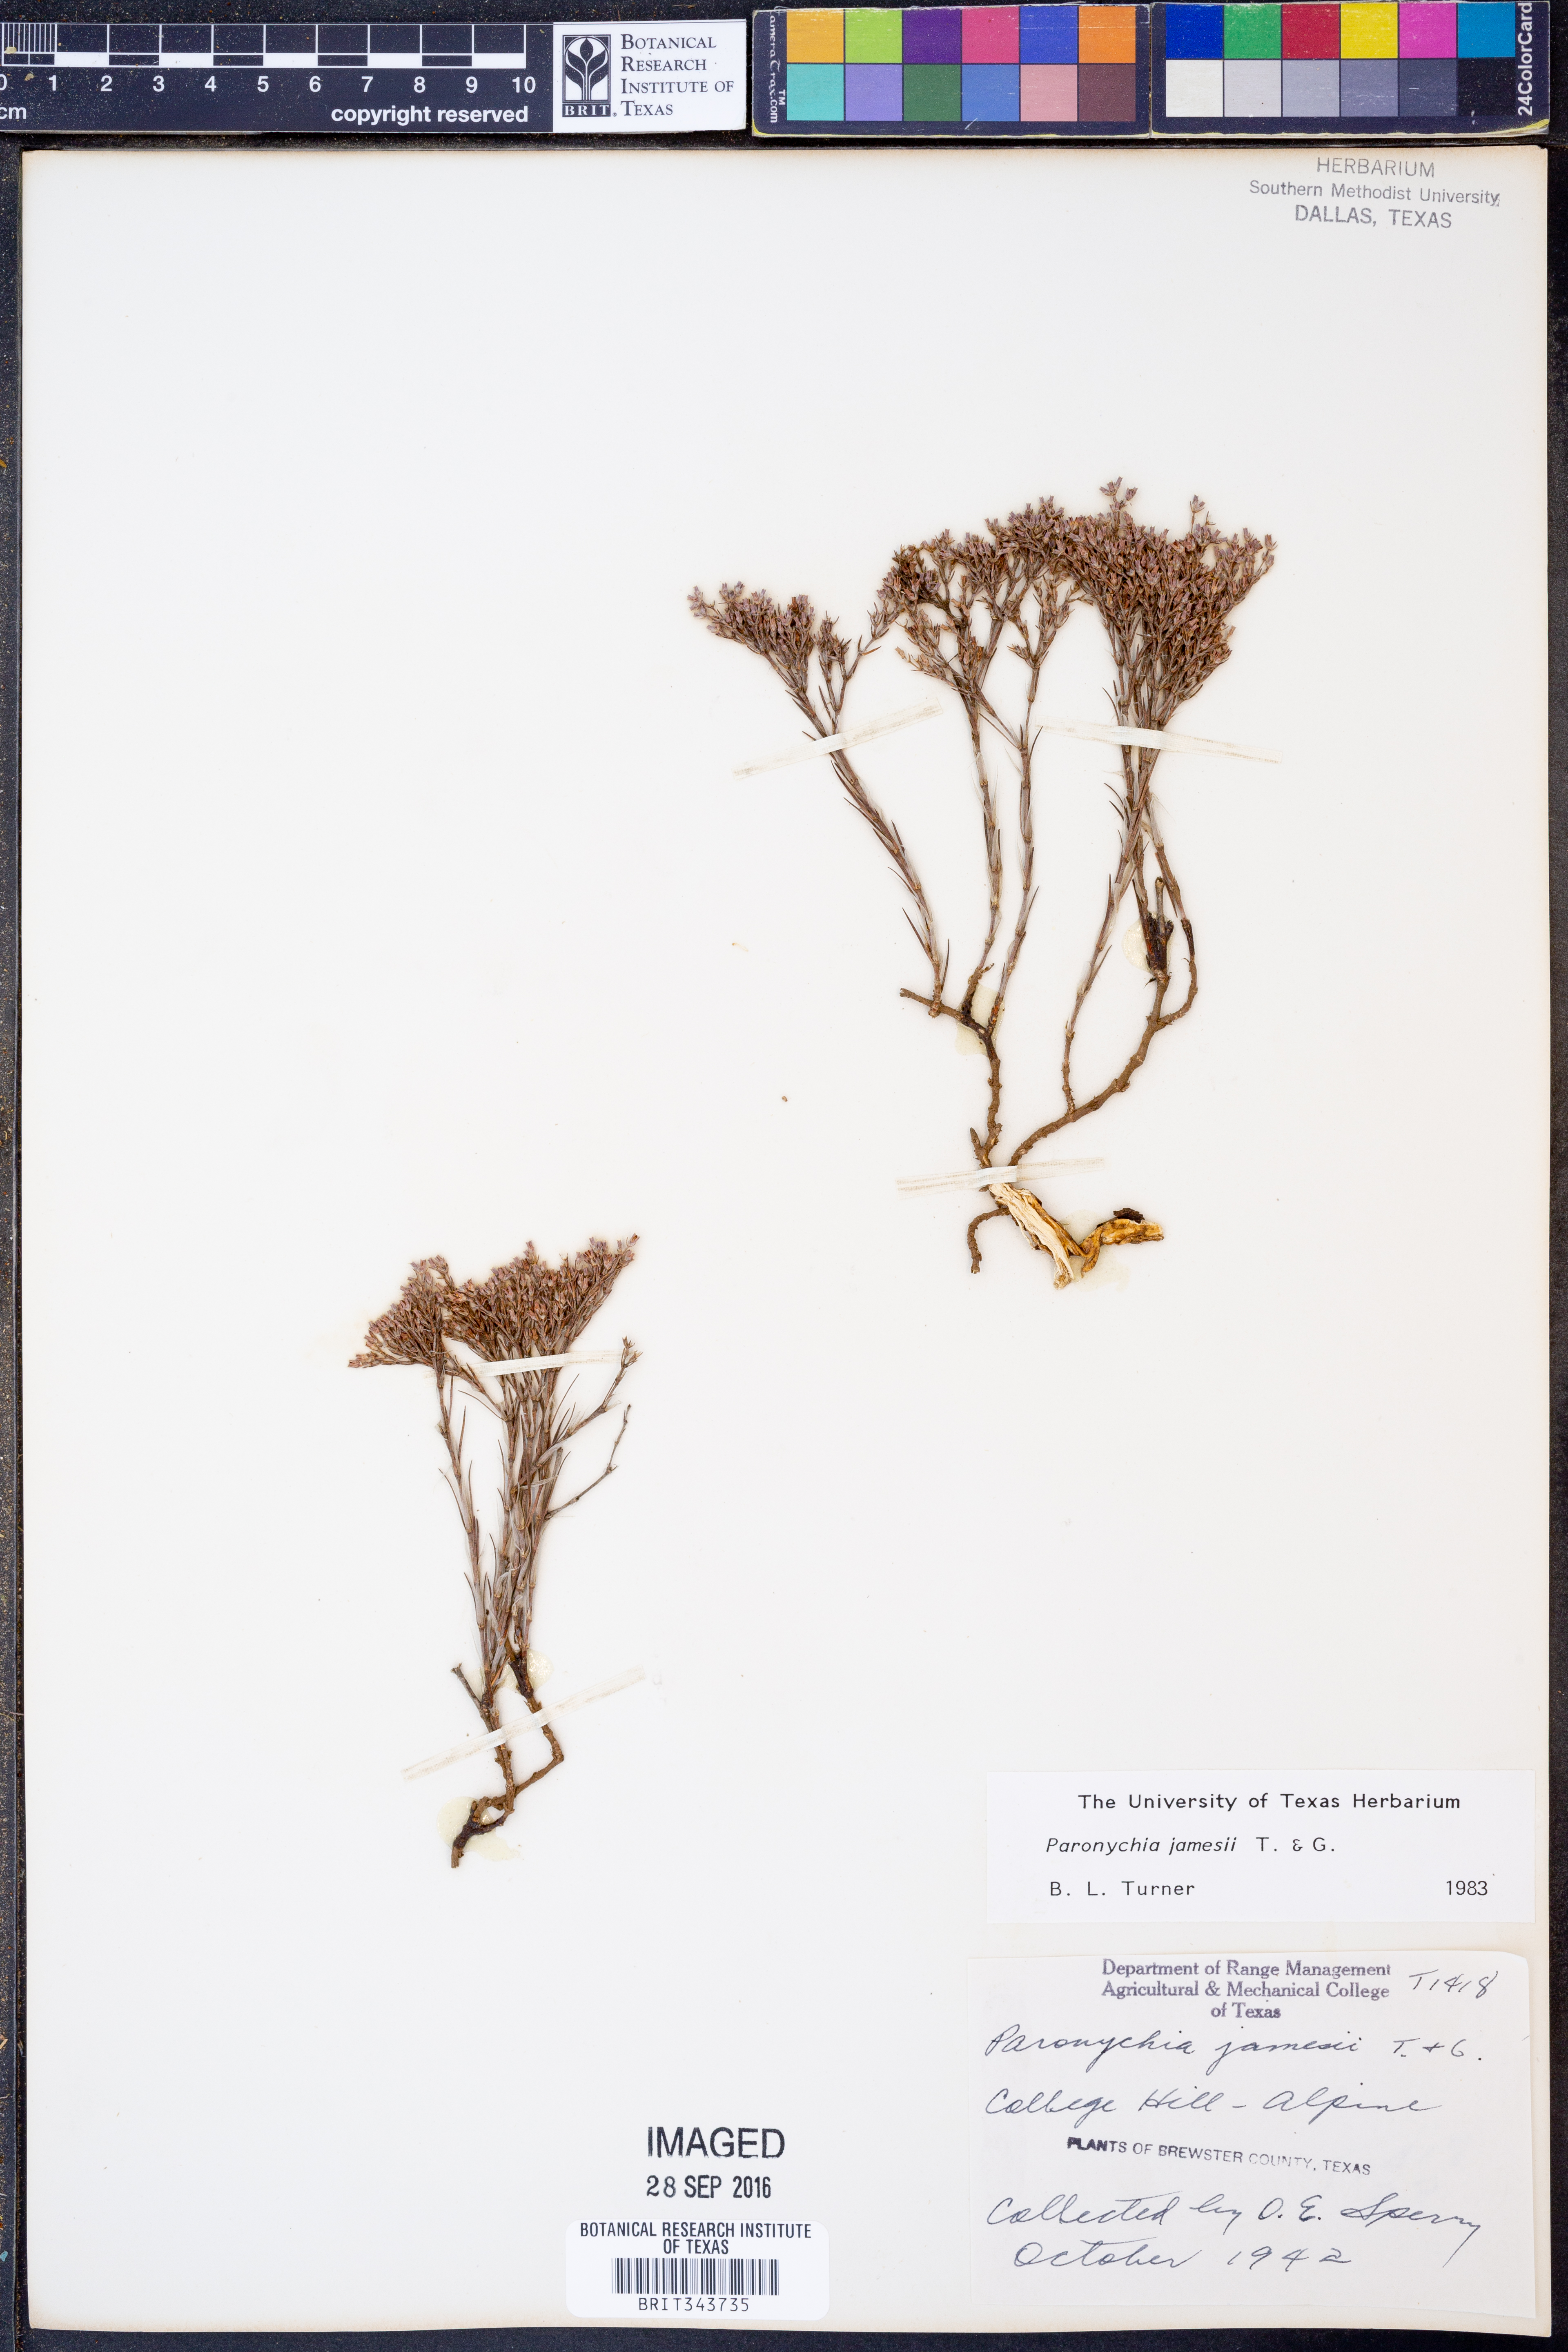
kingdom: Plantae
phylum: Tracheophyta
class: Magnoliopsida
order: Caryophyllales
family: Caryophyllaceae
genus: Paronychia
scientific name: Paronychia jamesii
